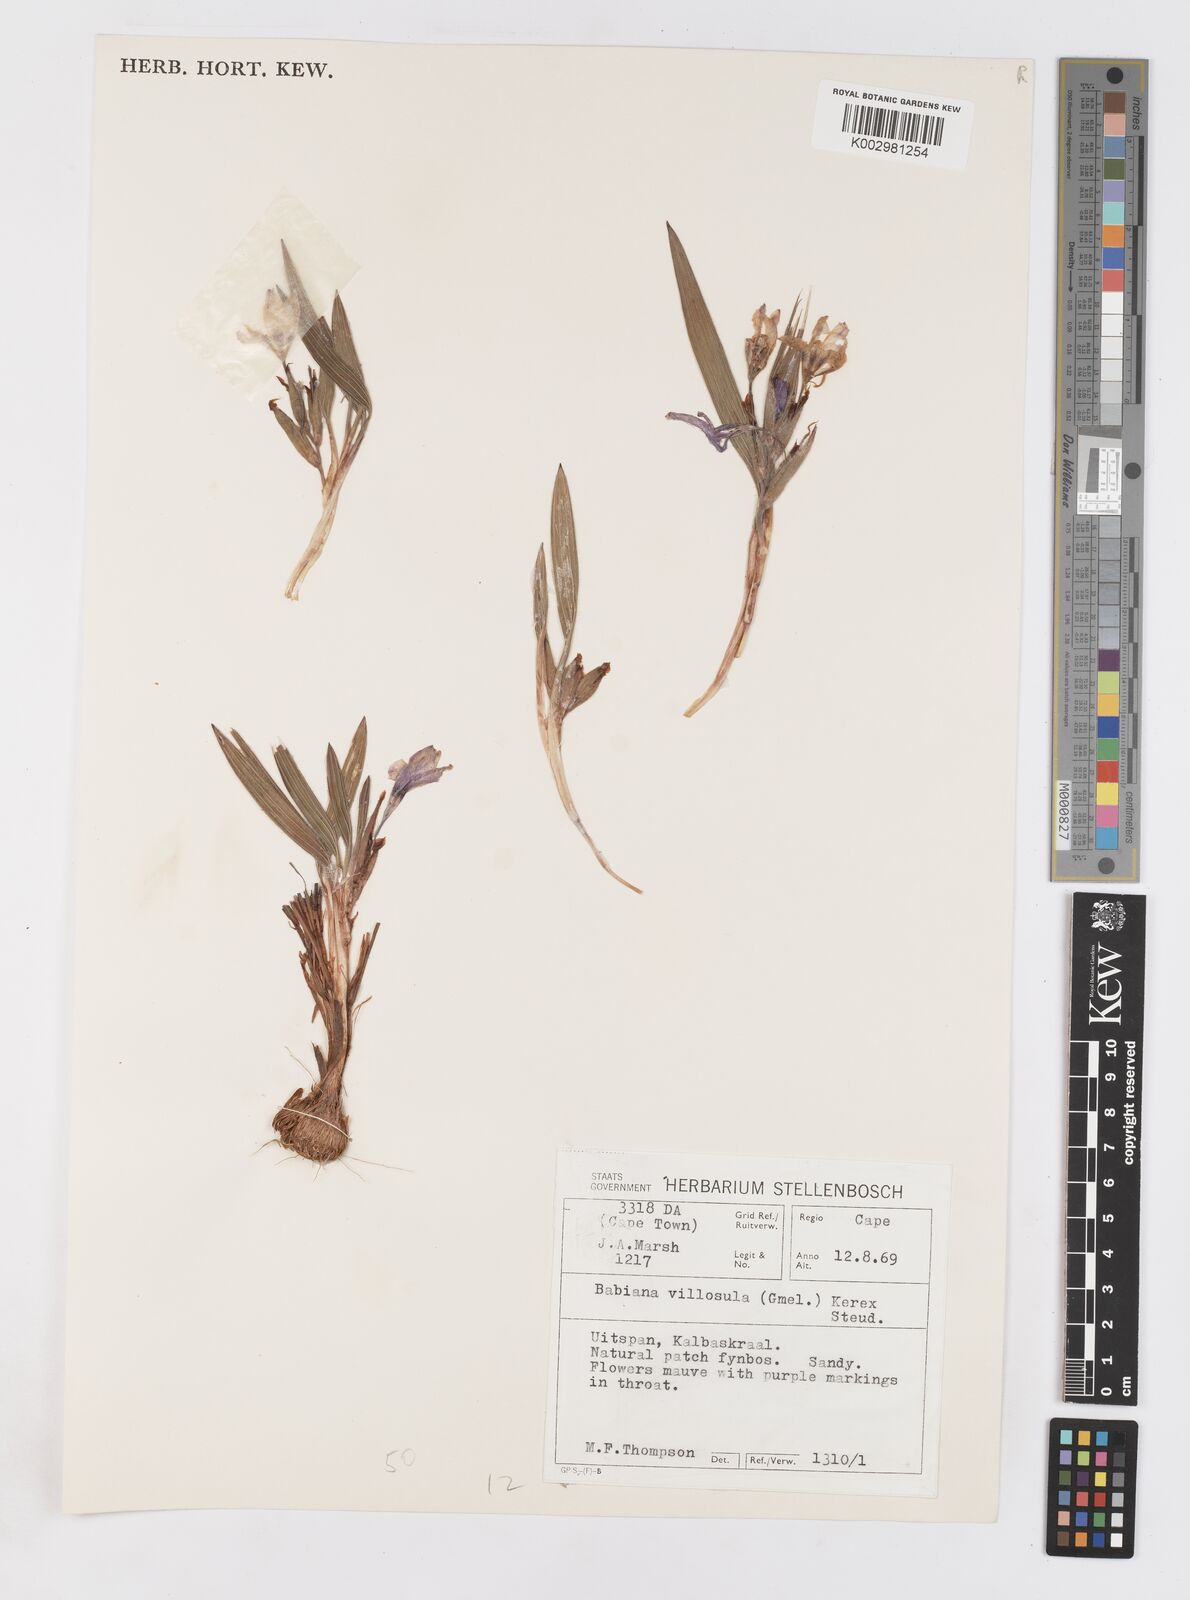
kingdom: Plantae
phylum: Tracheophyta
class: Liliopsida
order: Asparagales
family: Iridaceae
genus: Babiana
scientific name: Babiana villosula
